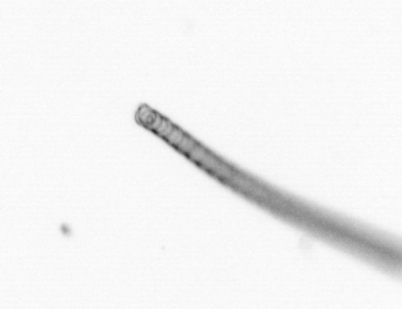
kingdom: Chromista
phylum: Ochrophyta
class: Bacillariophyceae
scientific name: Bacillariophyceae
